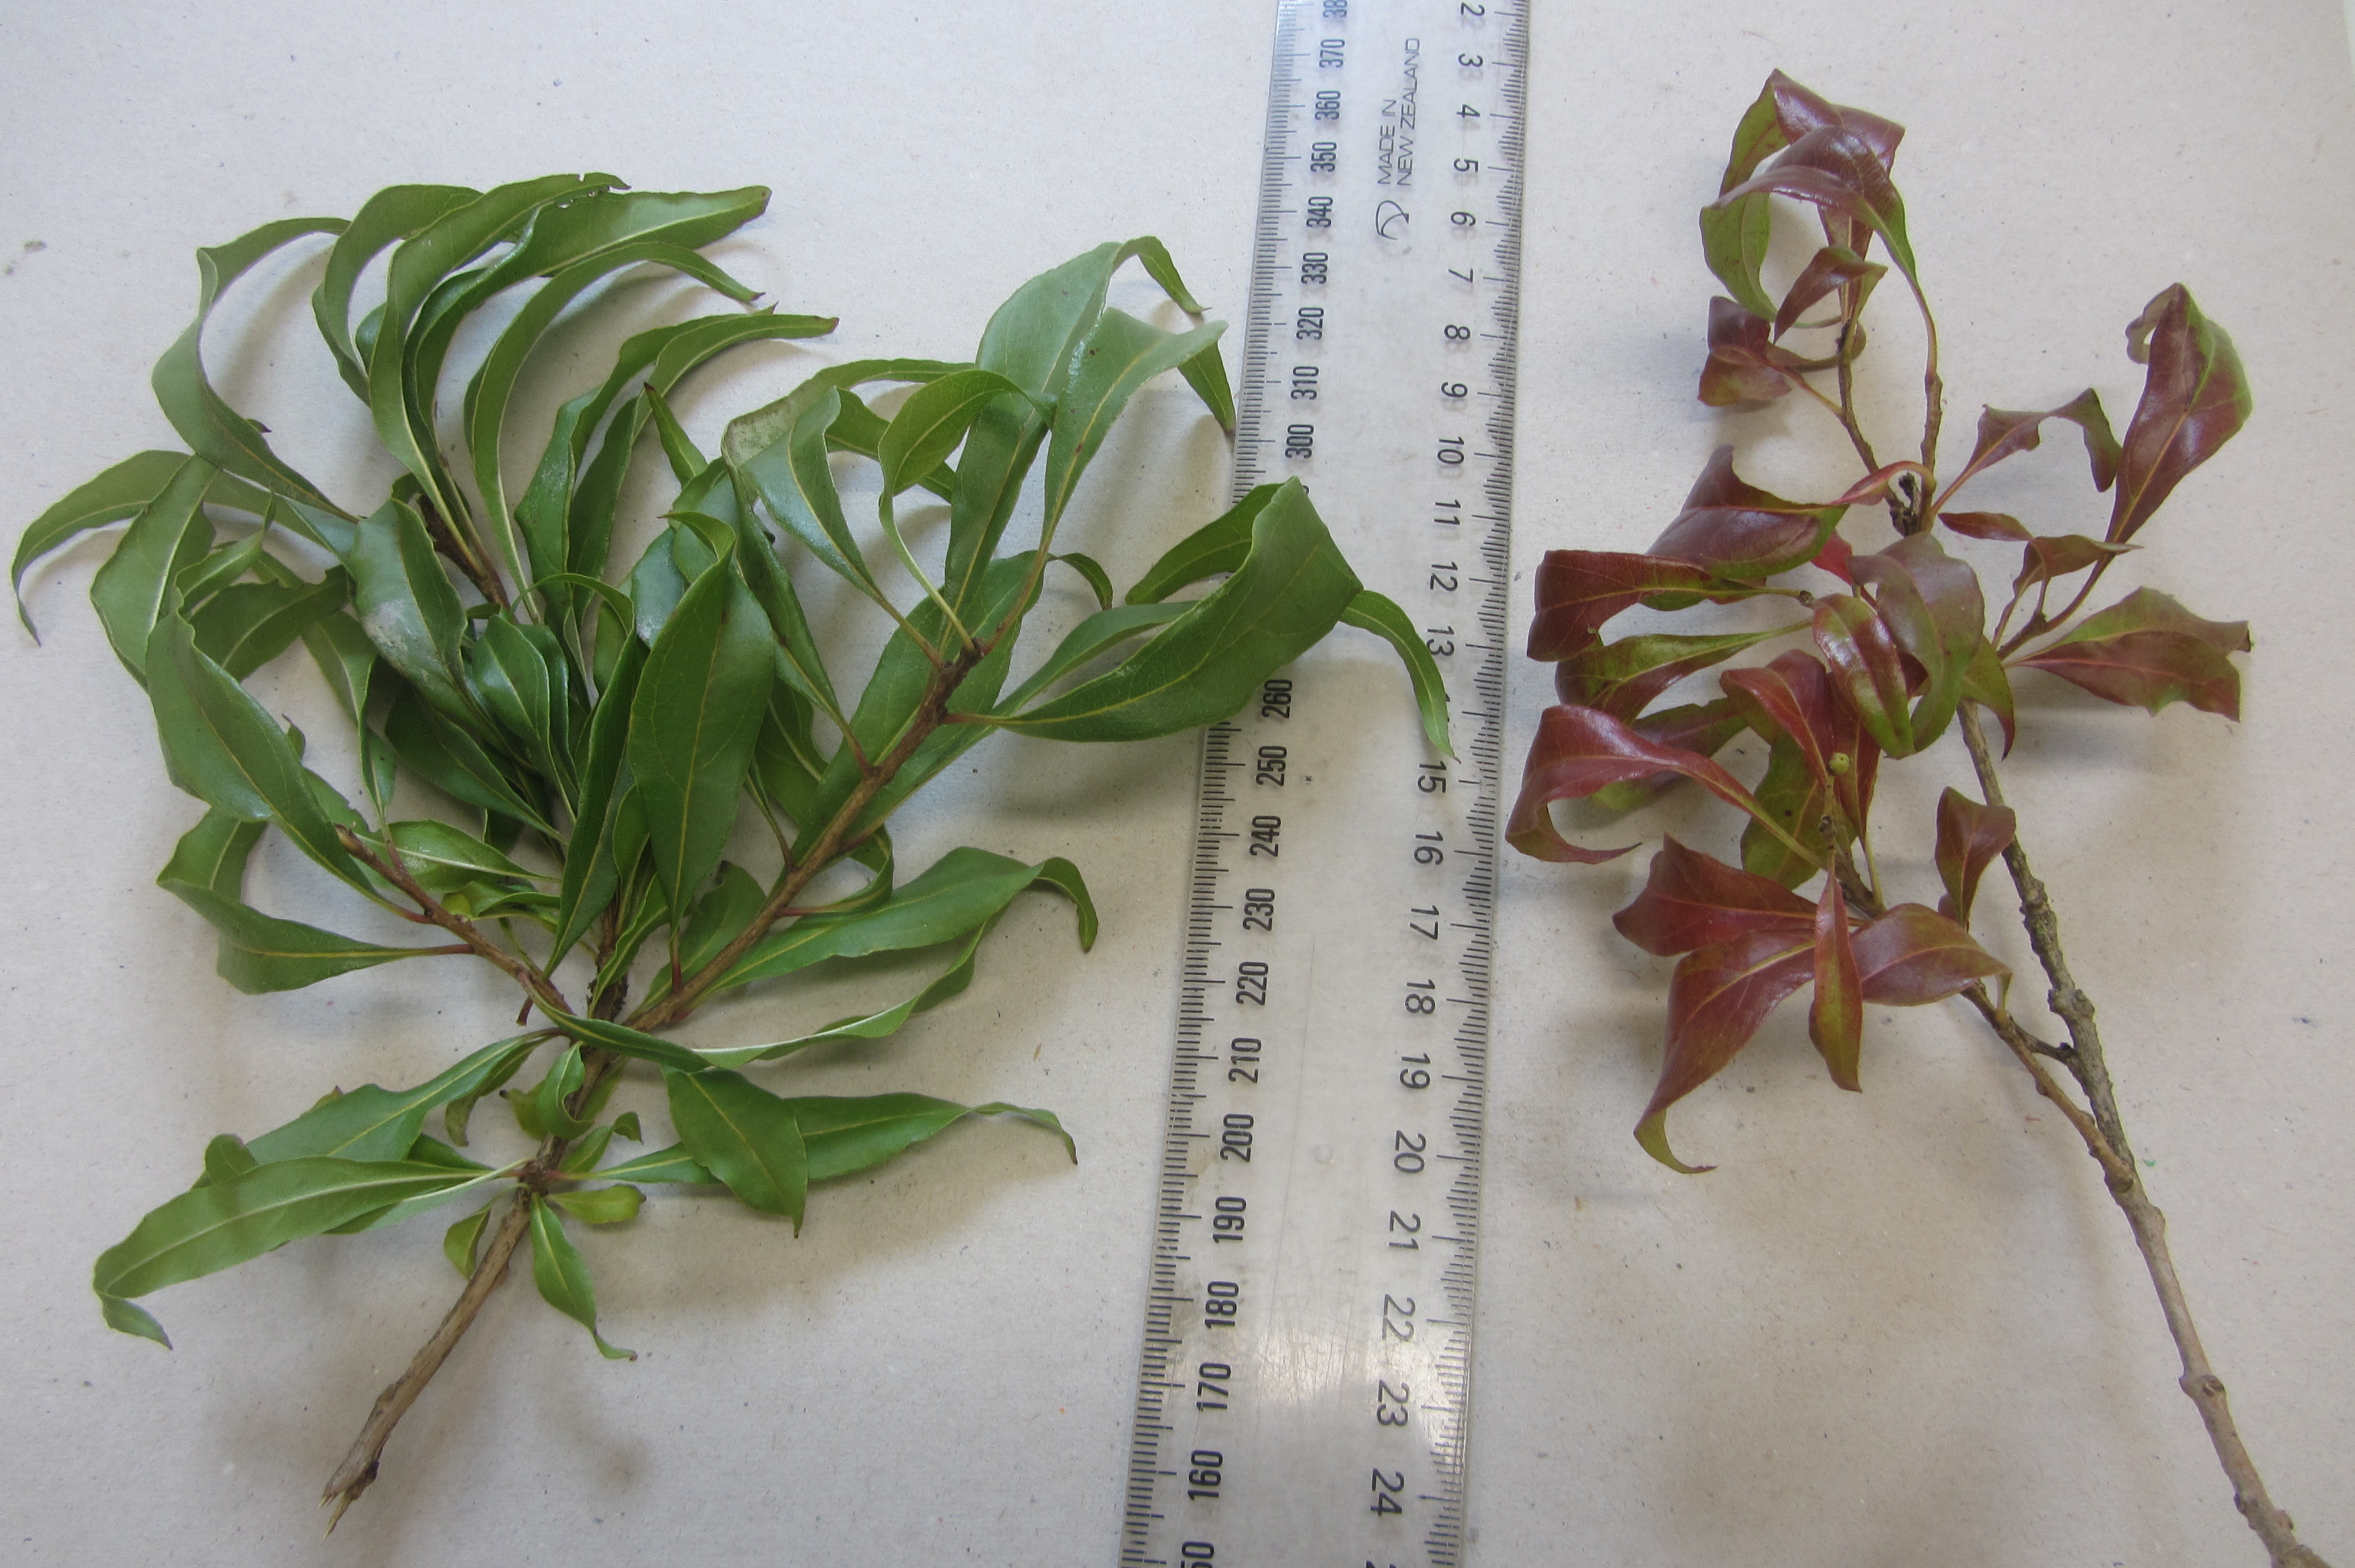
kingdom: Plantae
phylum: Tracheophyta
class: Magnoliopsida
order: Myrtales
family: Myrtaceae
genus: Tristaniopsis
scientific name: Tristaniopsis collina
